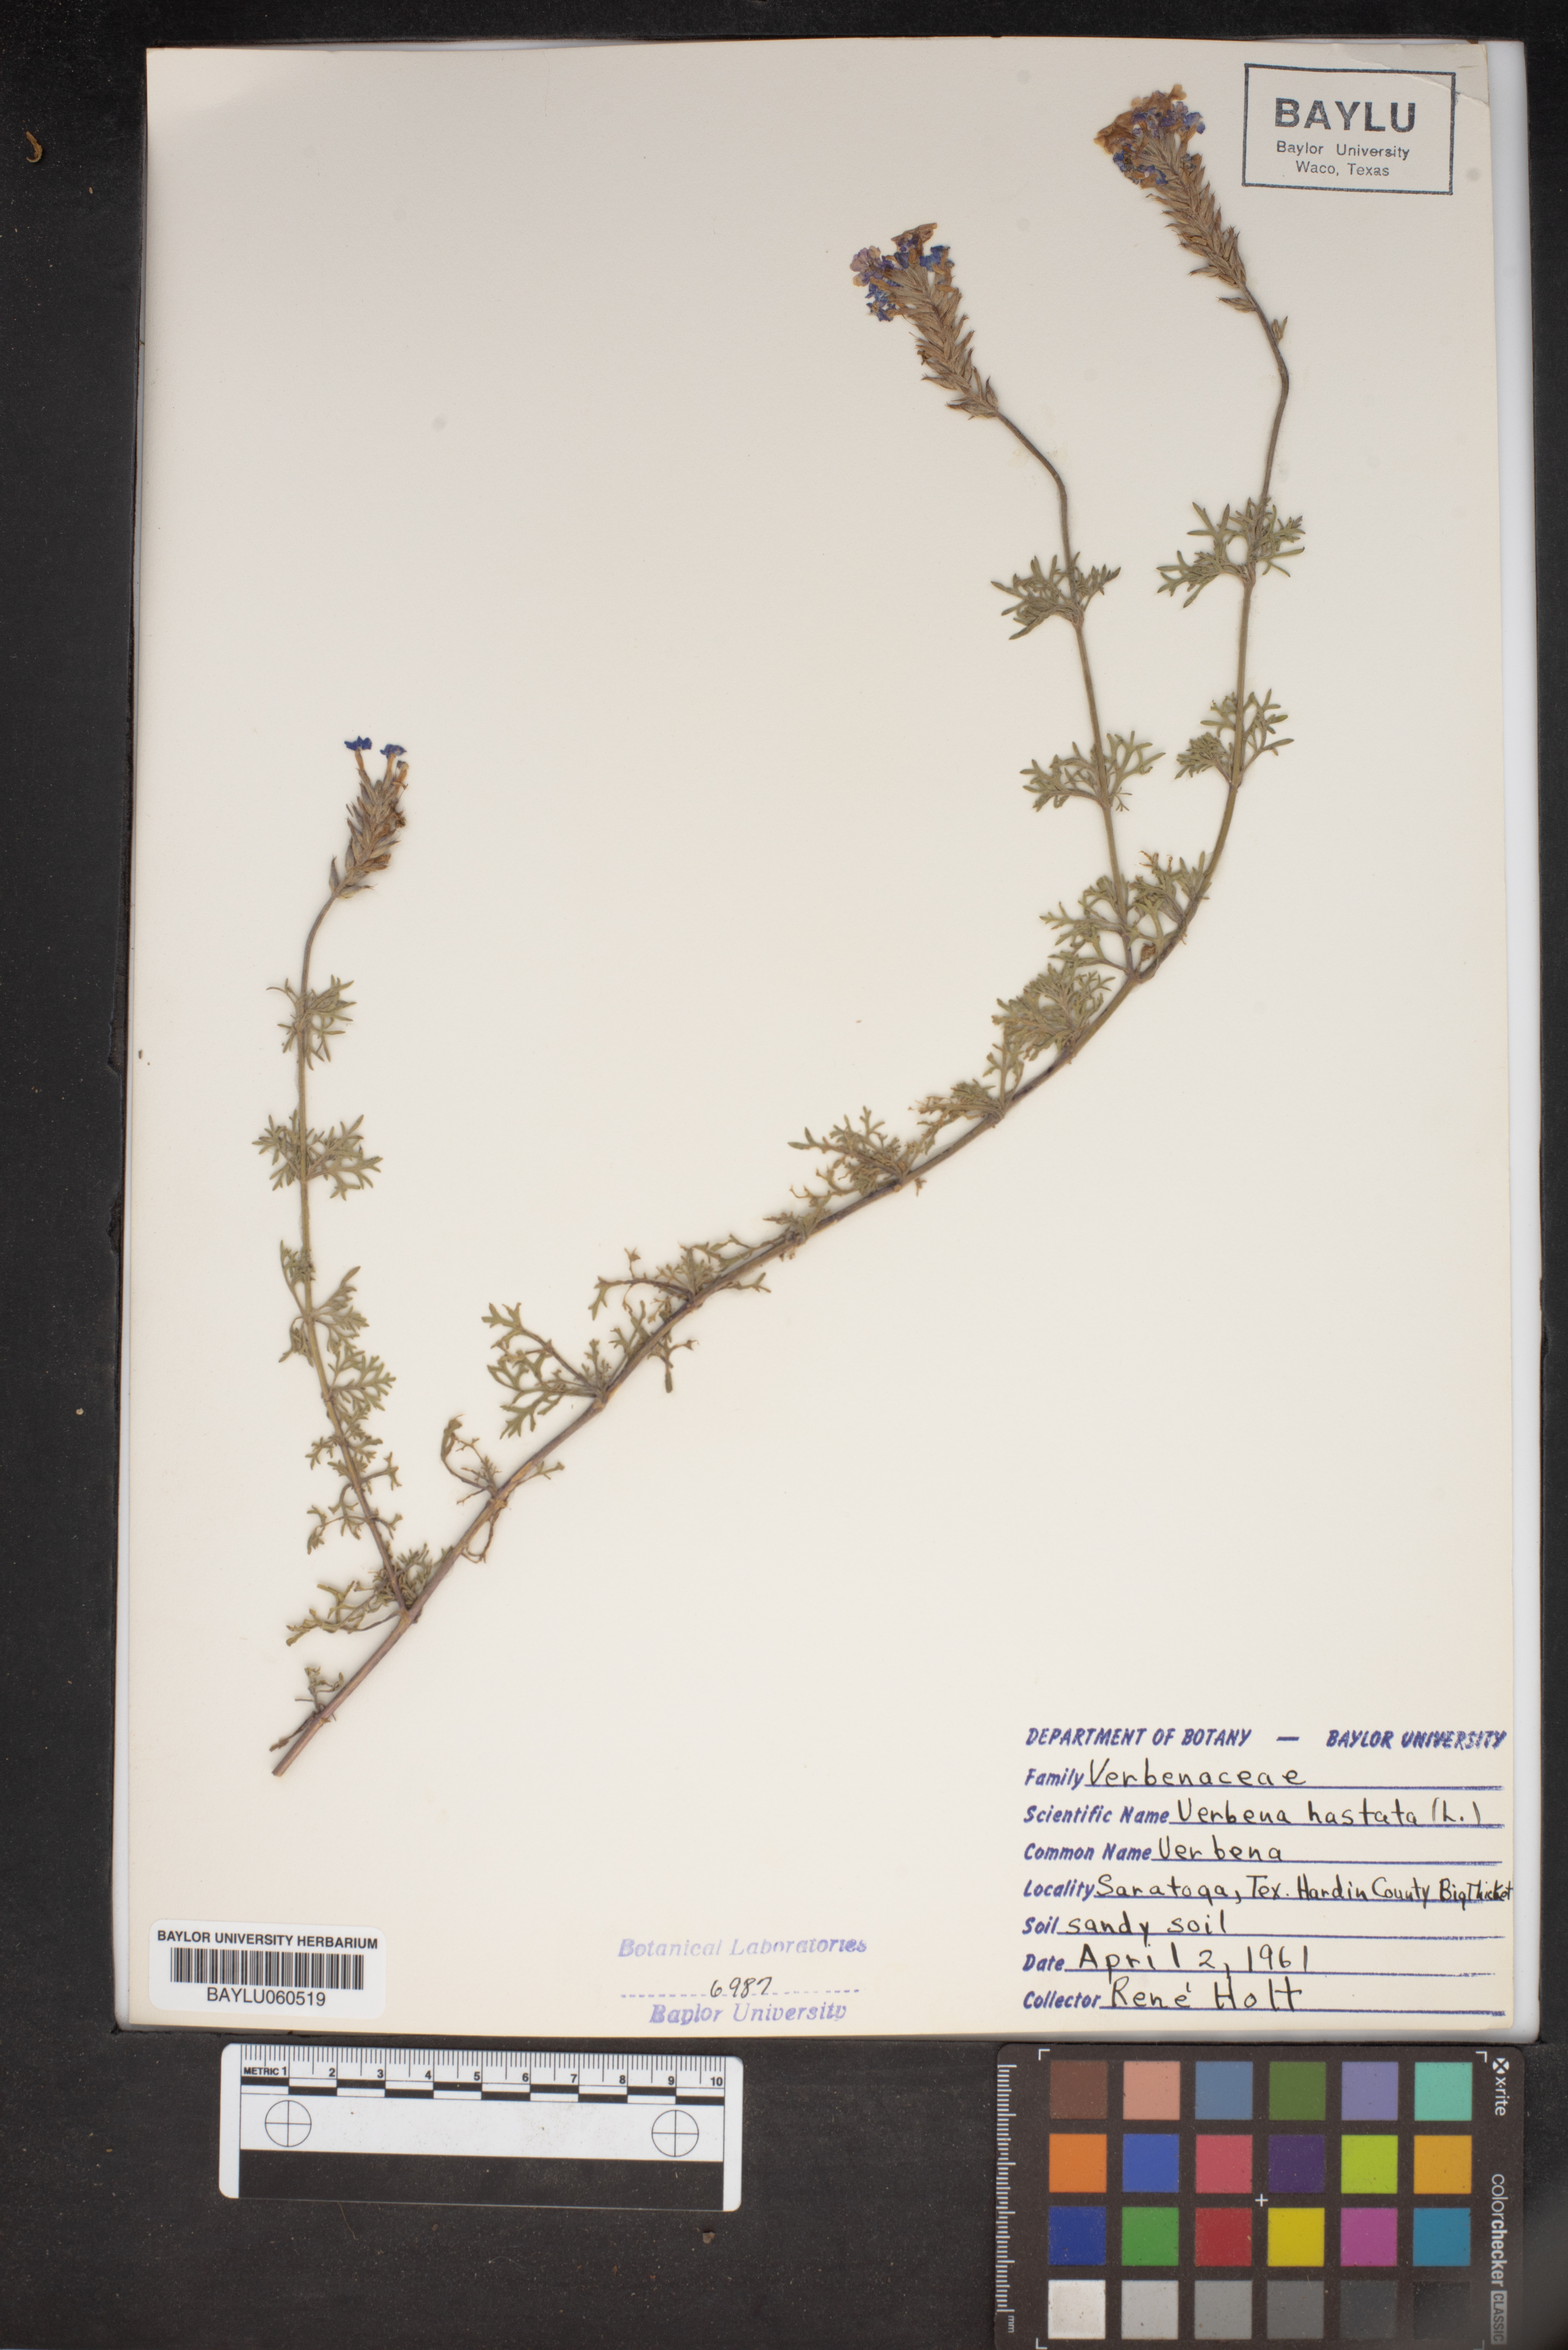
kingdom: Plantae
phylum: Tracheophyta
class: Magnoliopsida
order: Lamiales
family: Verbenaceae
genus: Verbena
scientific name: Verbena hastata
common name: American blue vervain
